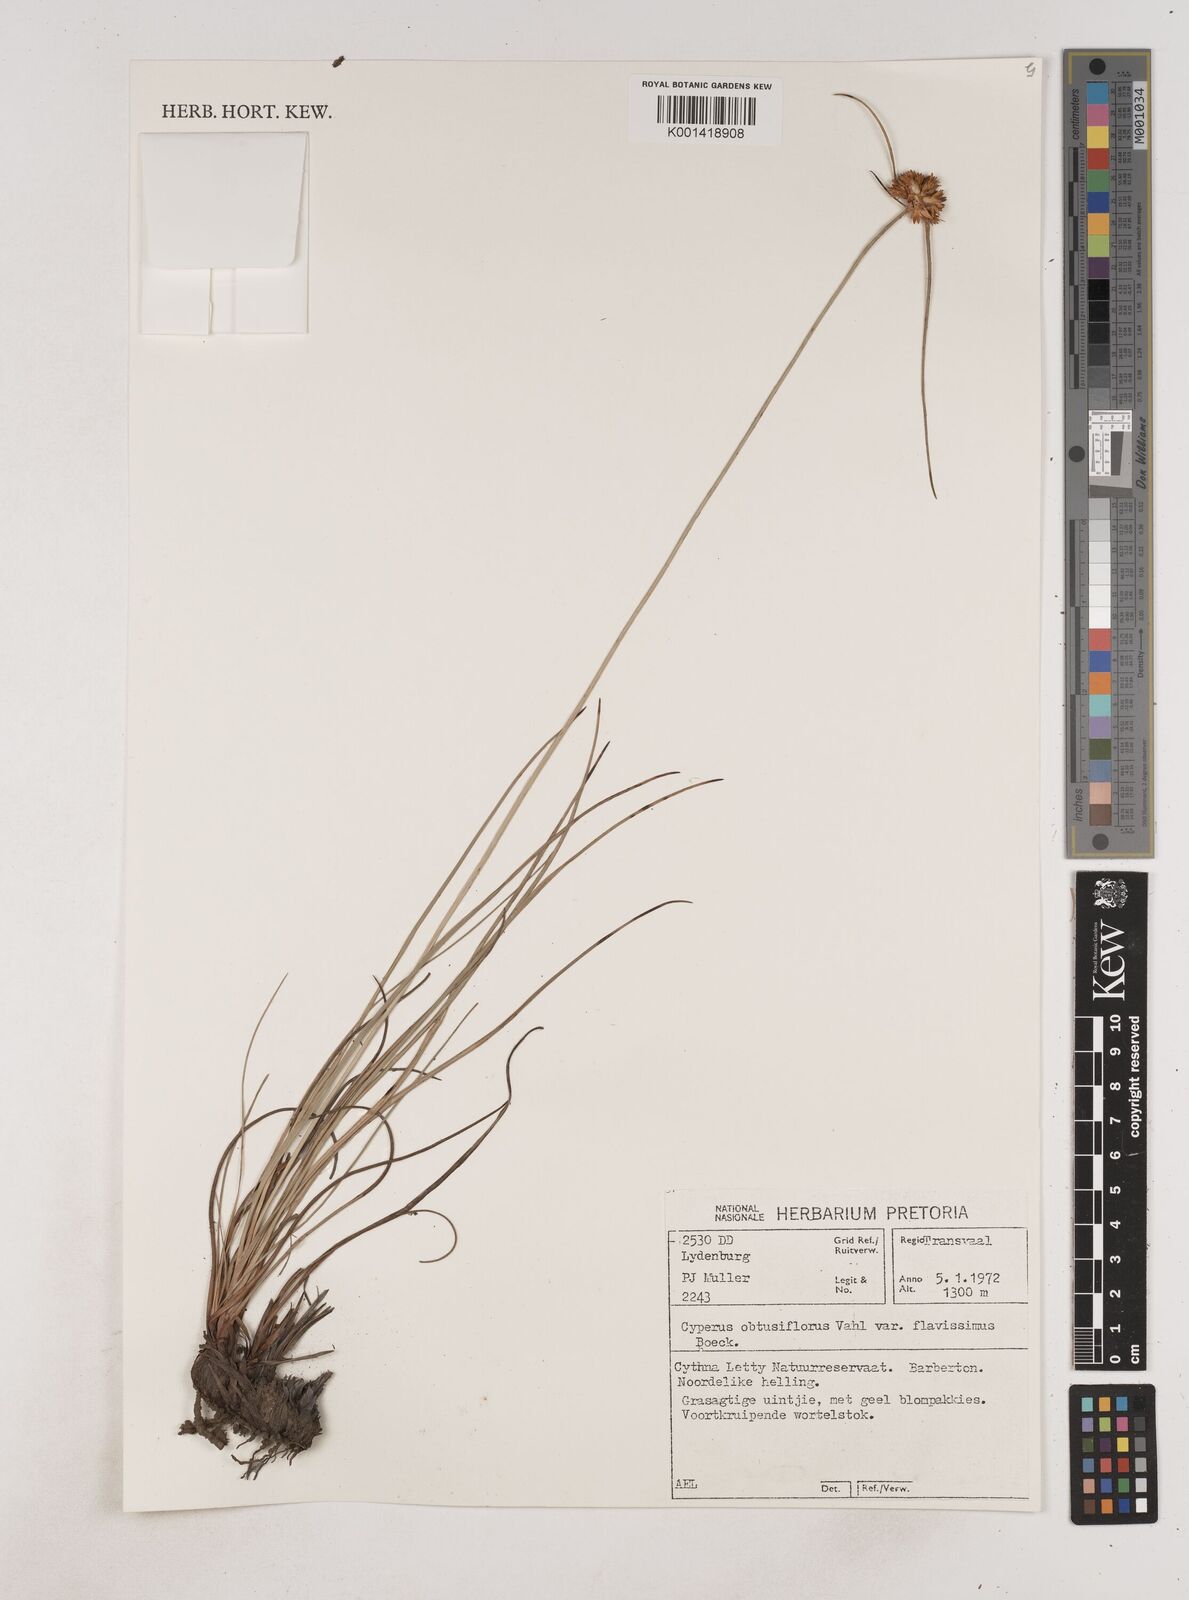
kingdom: Plantae
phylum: Tracheophyta
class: Liliopsida
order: Poales
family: Cyperaceae
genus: Cyperus
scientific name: Cyperus sphaerocephalus
